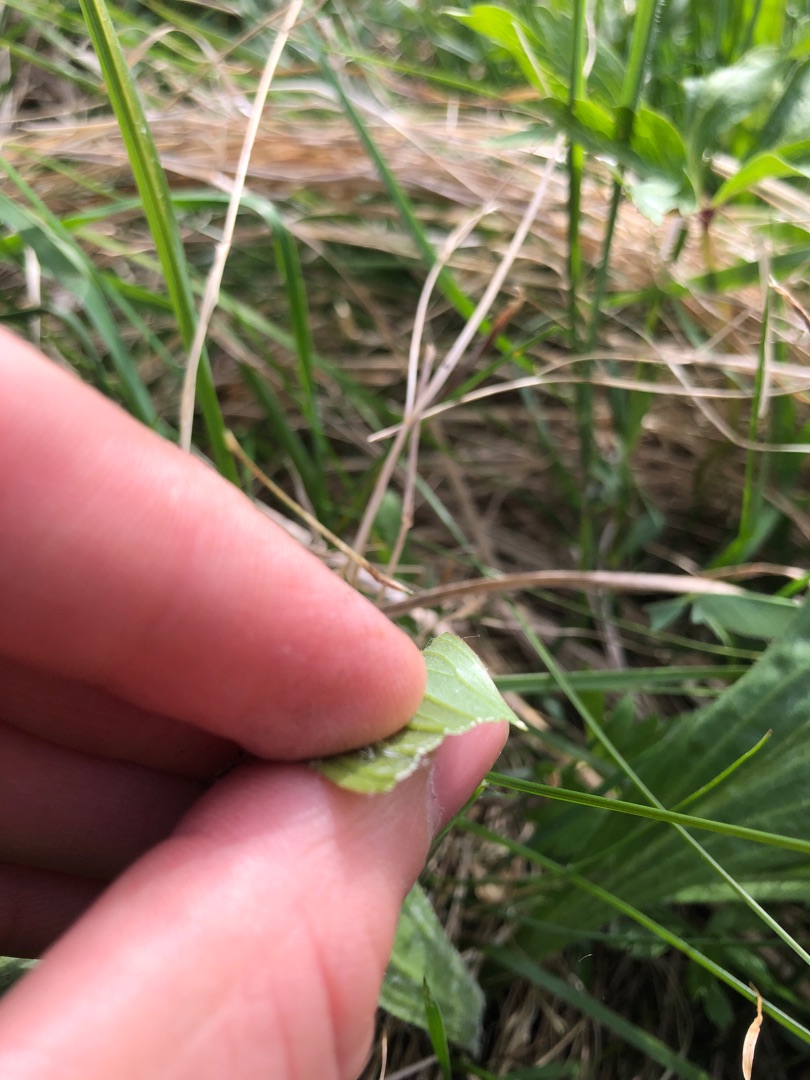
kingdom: Plantae
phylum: Tracheophyta
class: Magnoliopsida
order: Asterales
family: Asteraceae
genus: Scorzonera
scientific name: Scorzonera humilis
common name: Lav skorsoner
